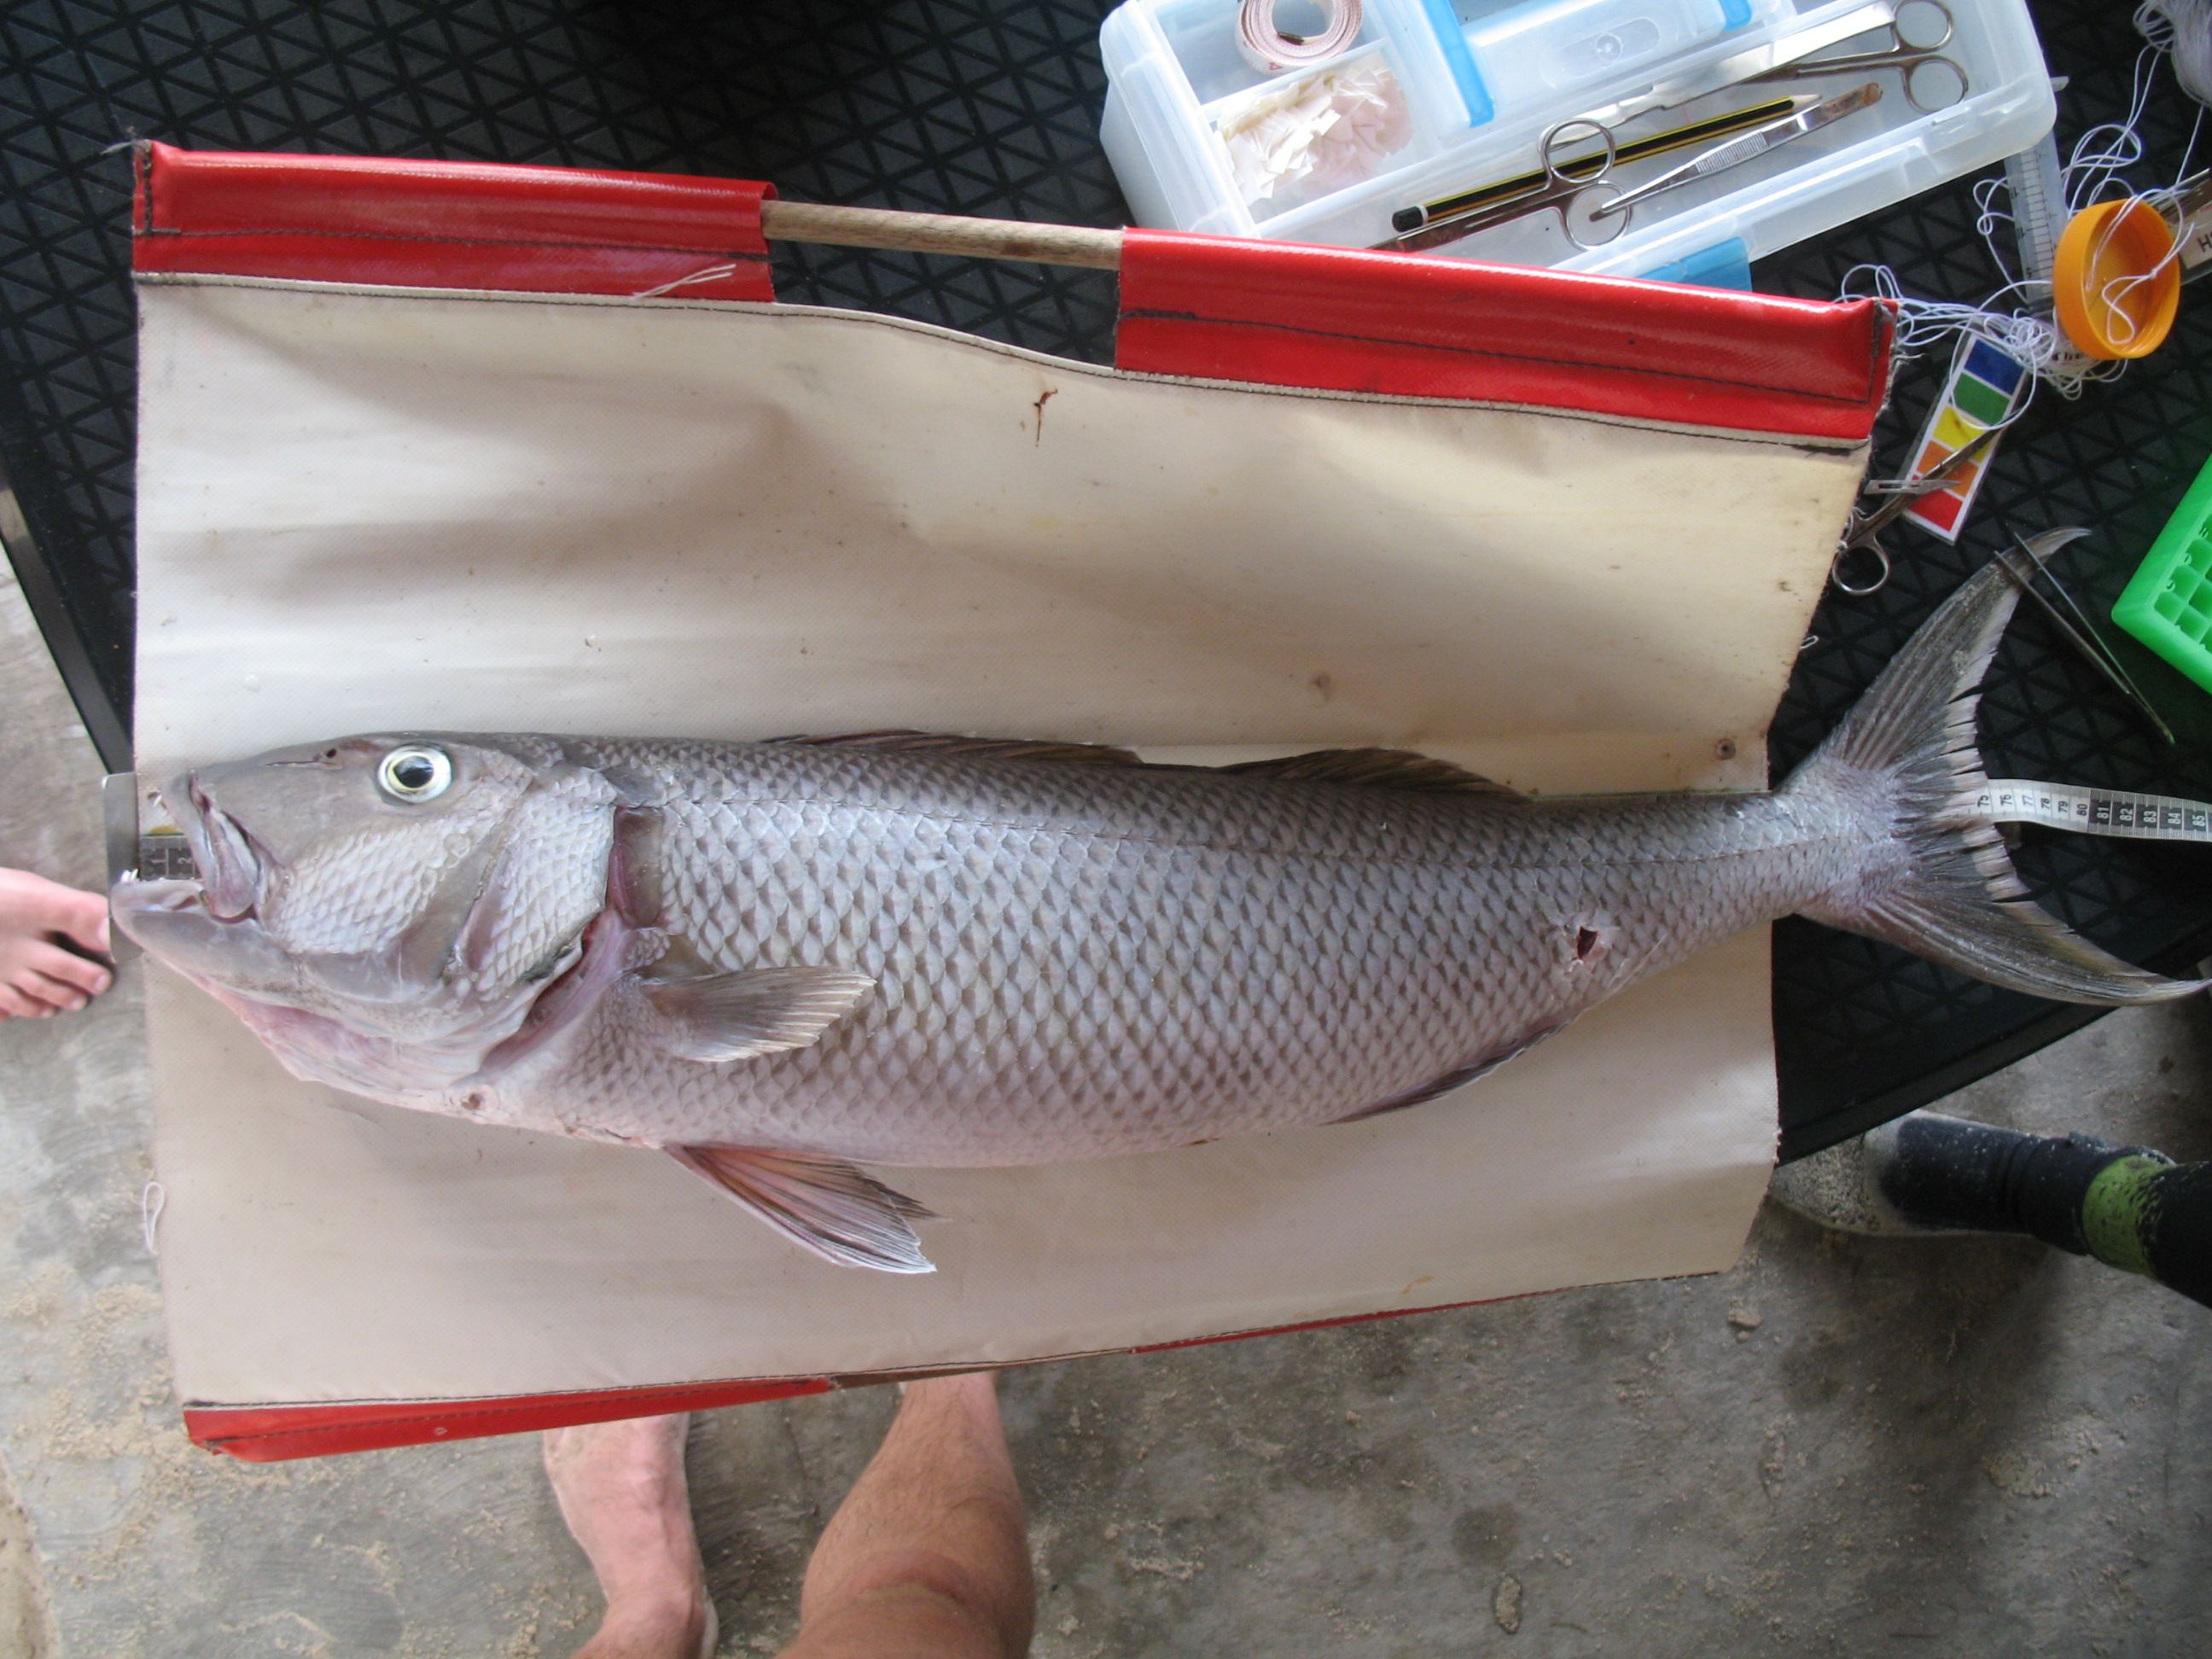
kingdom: Animalia
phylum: Chordata
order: Perciformes
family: Lutjanidae
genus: Aprion
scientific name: Aprion virescens
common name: Green jobfish
